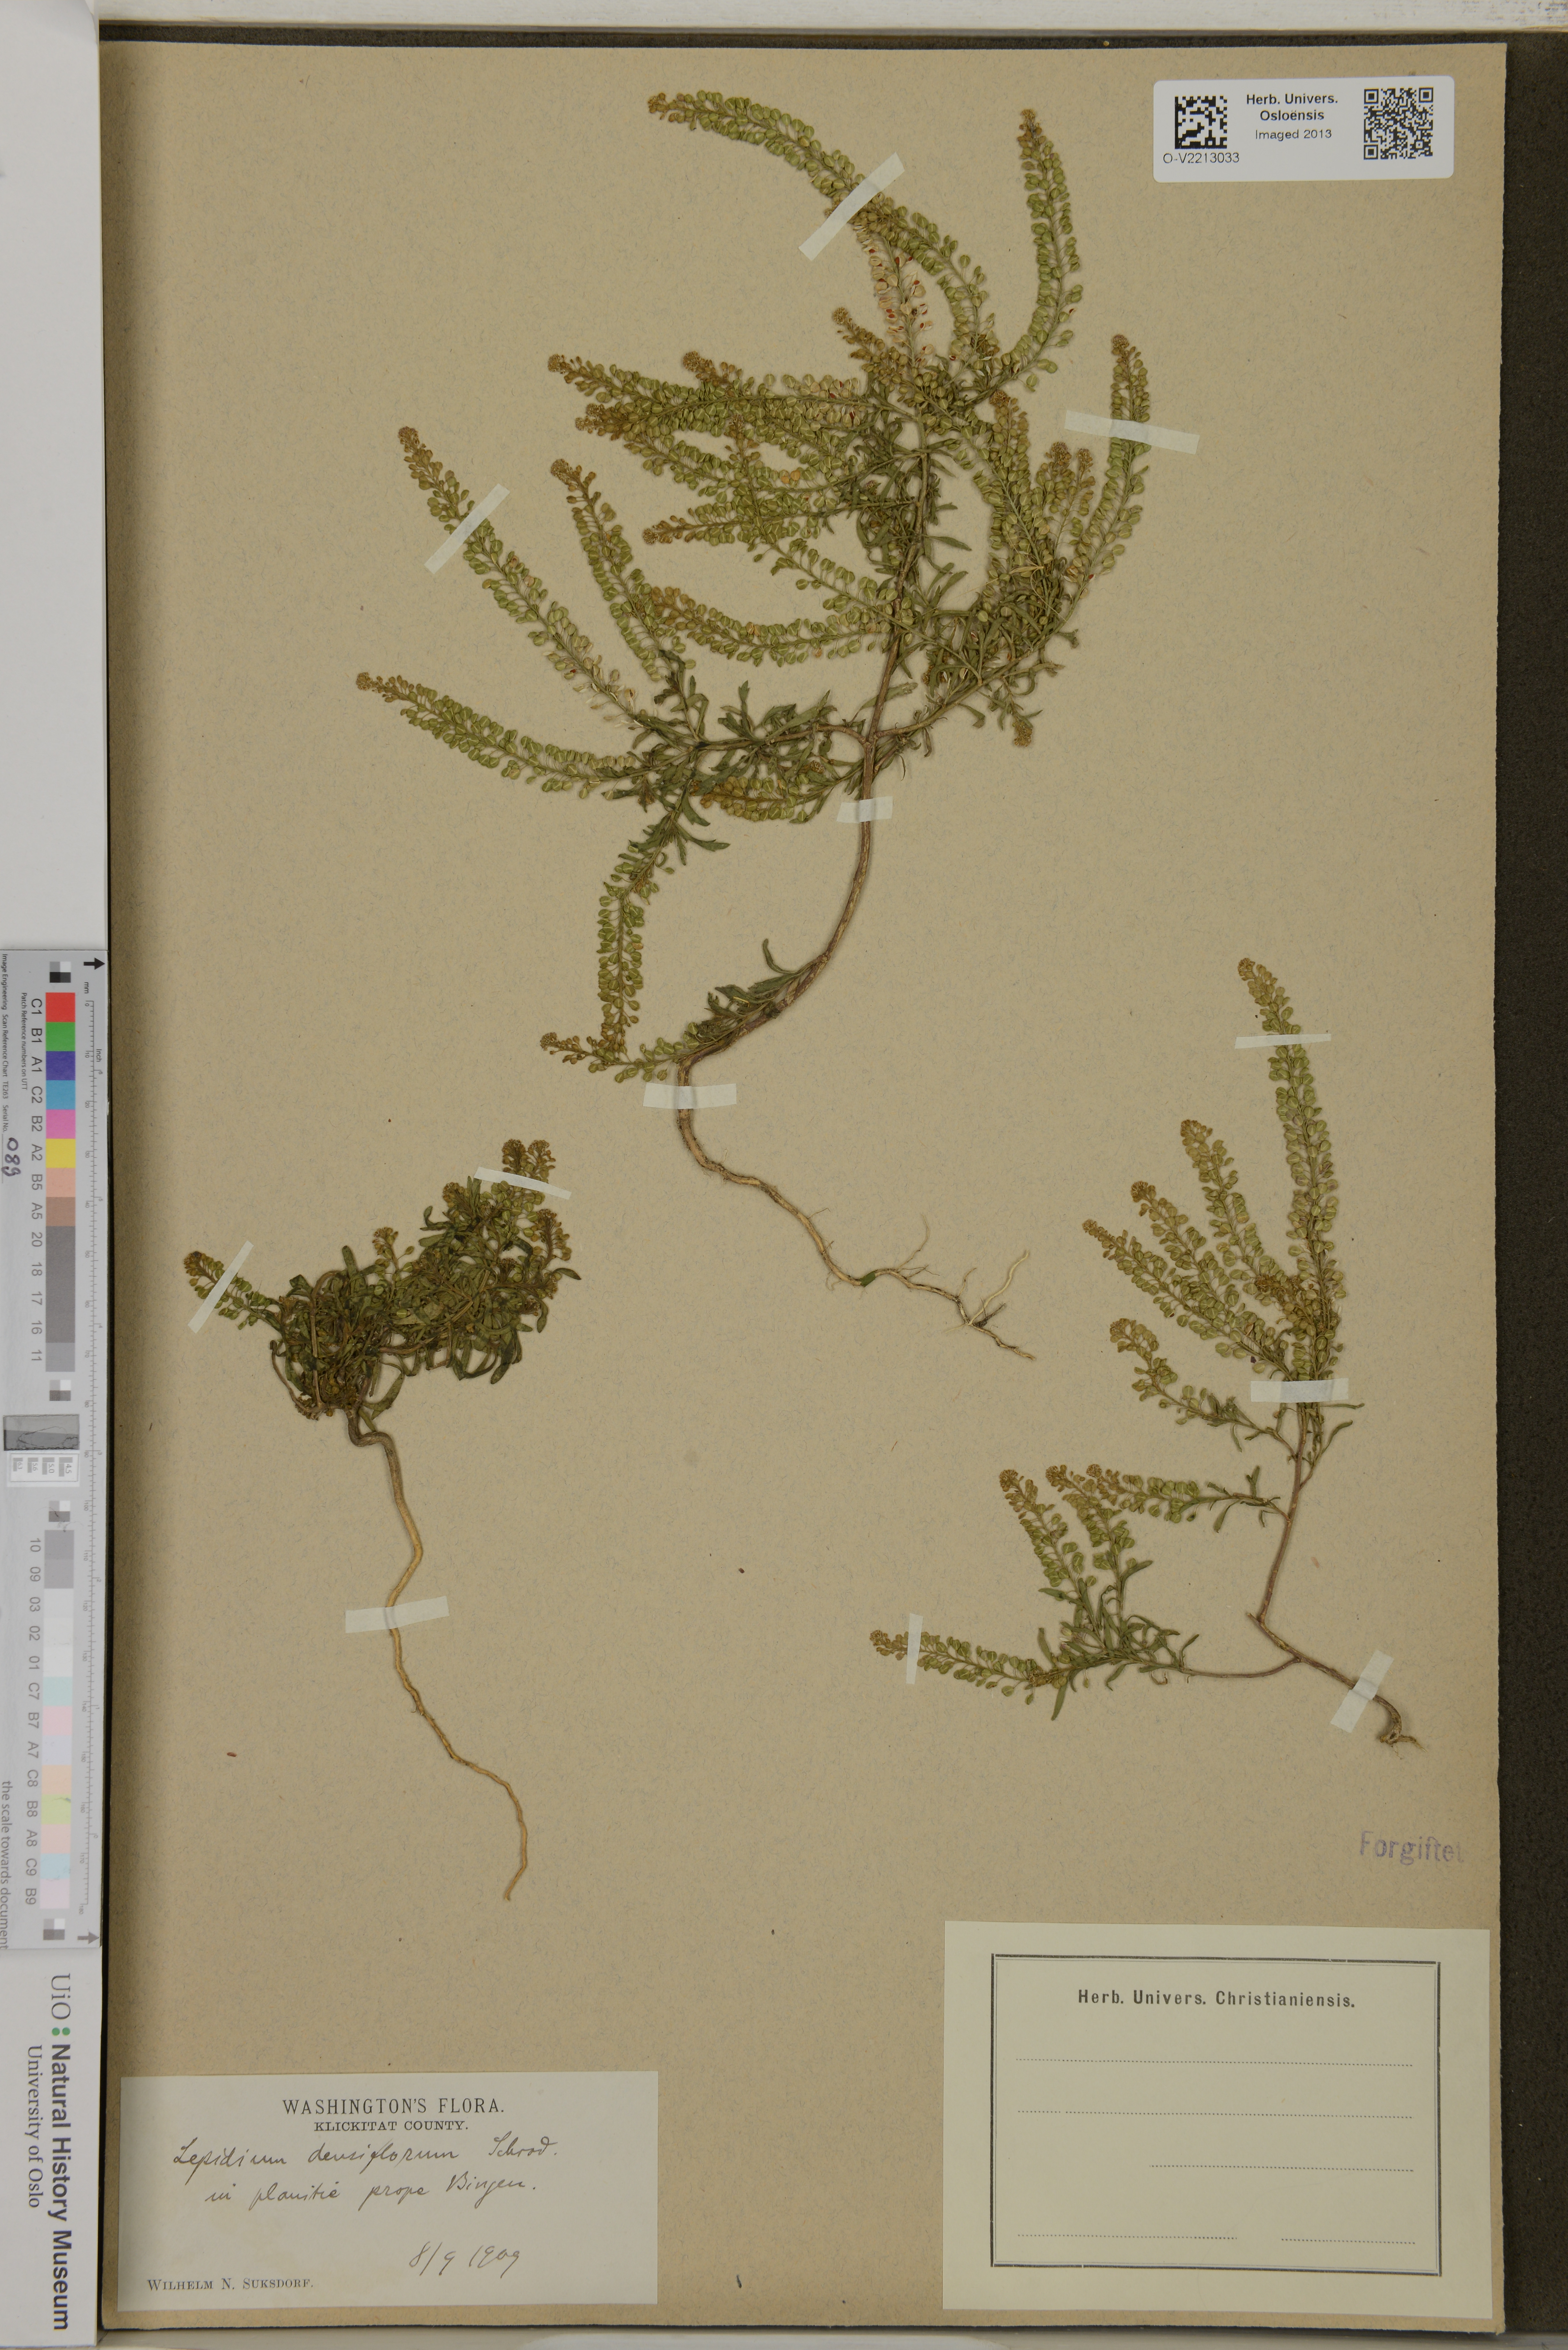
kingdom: Plantae
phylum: Tracheophyta
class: Magnoliopsida
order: Brassicales
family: Brassicaceae
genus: Lepidium
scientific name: Lepidium densiflorum
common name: Miner's pepperwort
